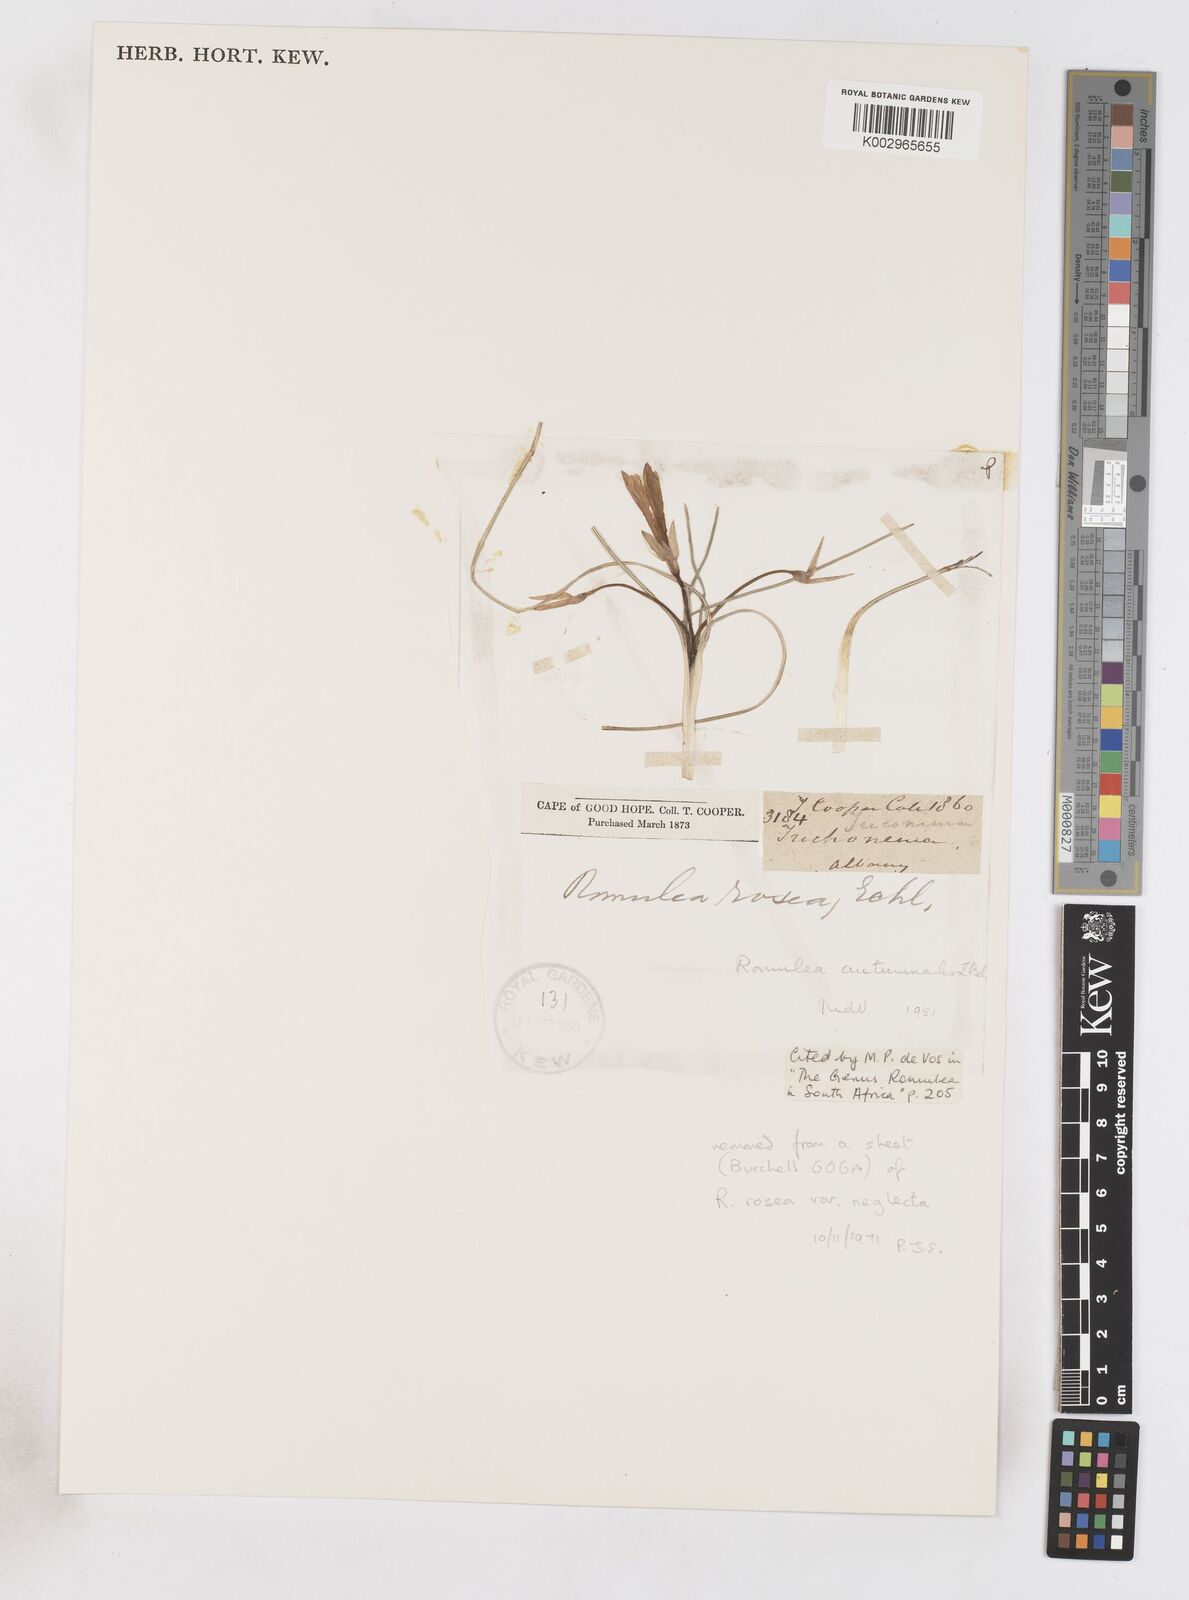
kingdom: Plantae
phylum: Tracheophyta
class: Liliopsida
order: Asparagales
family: Iridaceae
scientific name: Iridaceae
